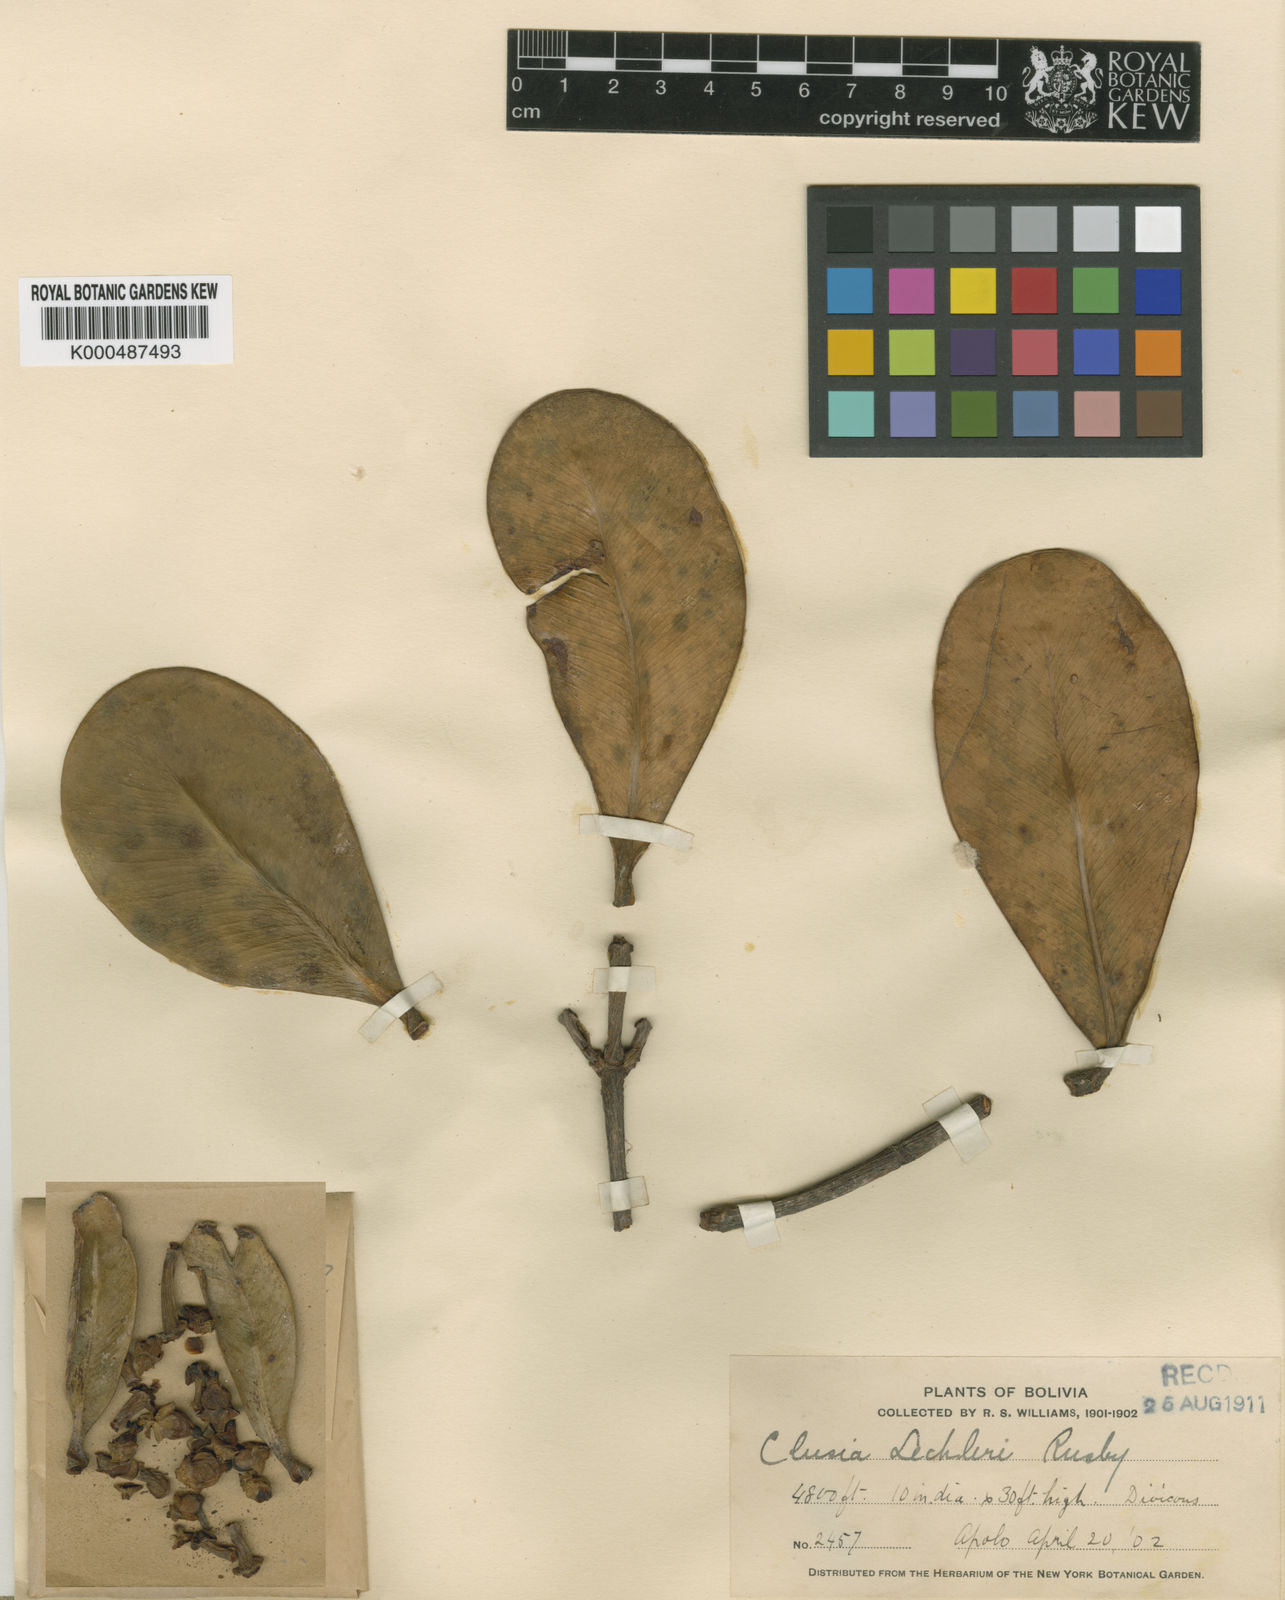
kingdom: Plantae
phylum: Tracheophyta
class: Magnoliopsida
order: Malpighiales
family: Clusiaceae
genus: Clusia
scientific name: Clusia lechleri
